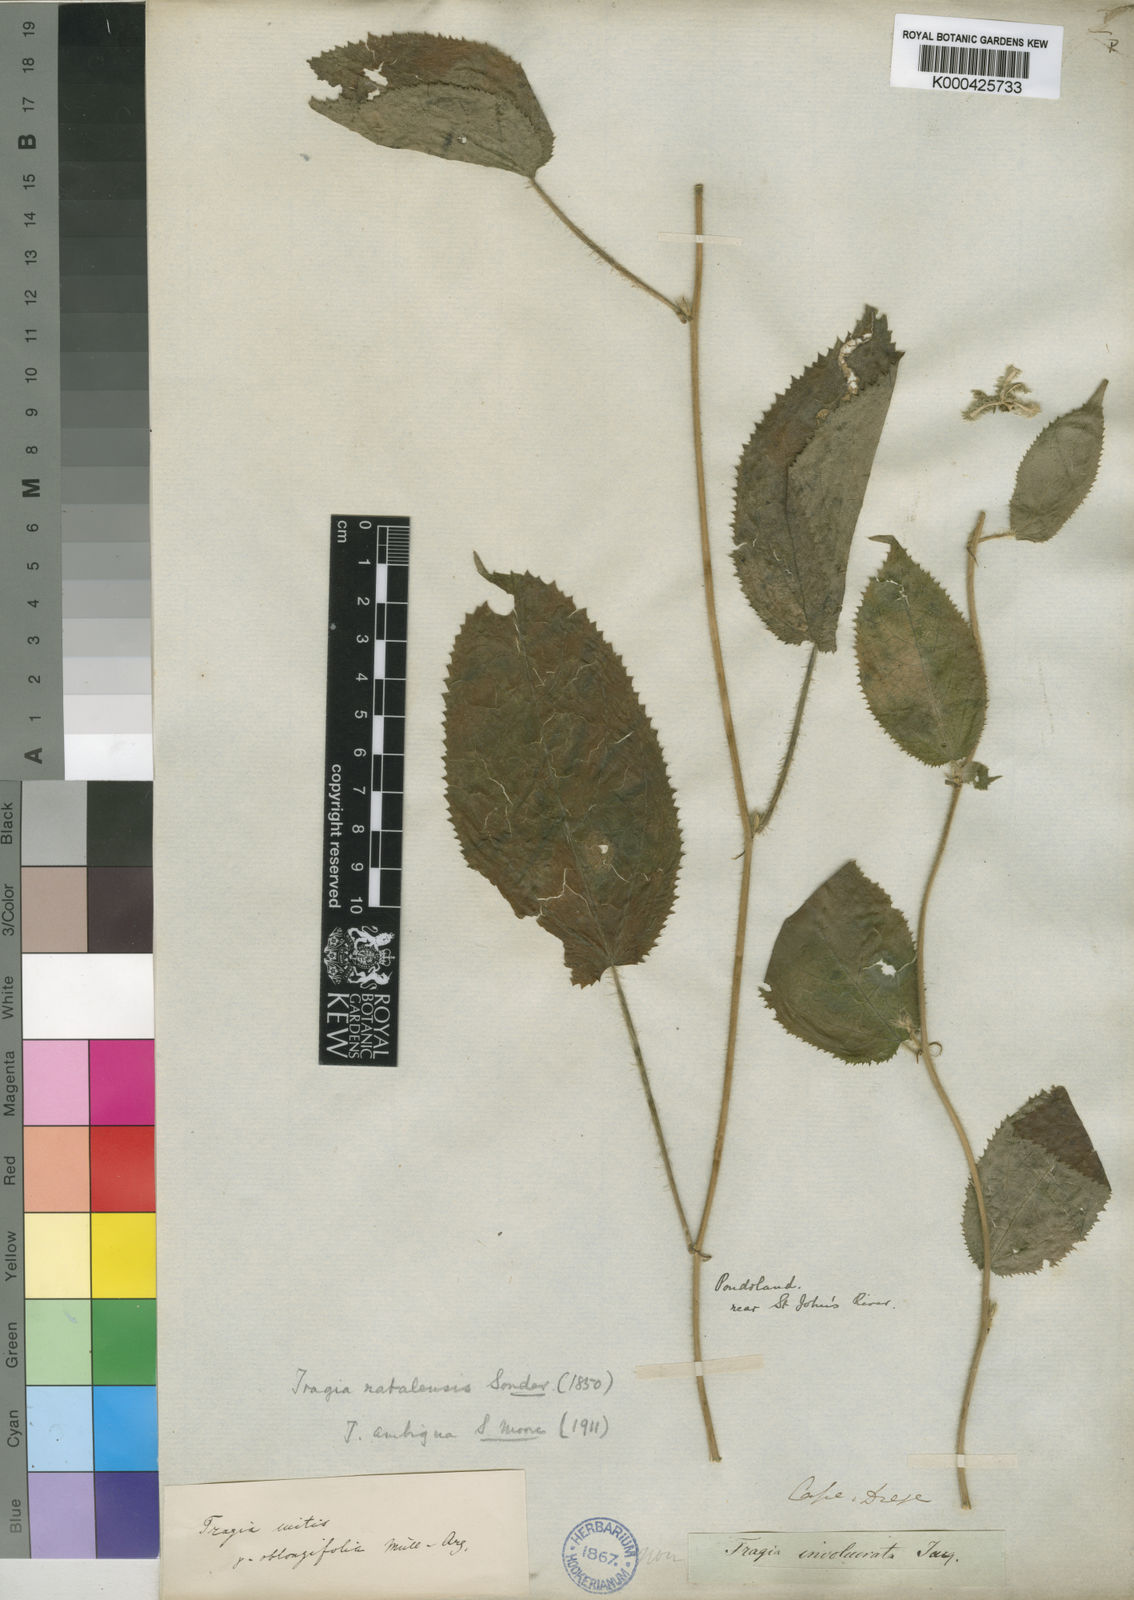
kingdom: Plantae
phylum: Tracheophyta
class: Magnoliopsida
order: Malpighiales
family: Euphorbiaceae
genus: Tragiella
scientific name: Tragiella natalensis
